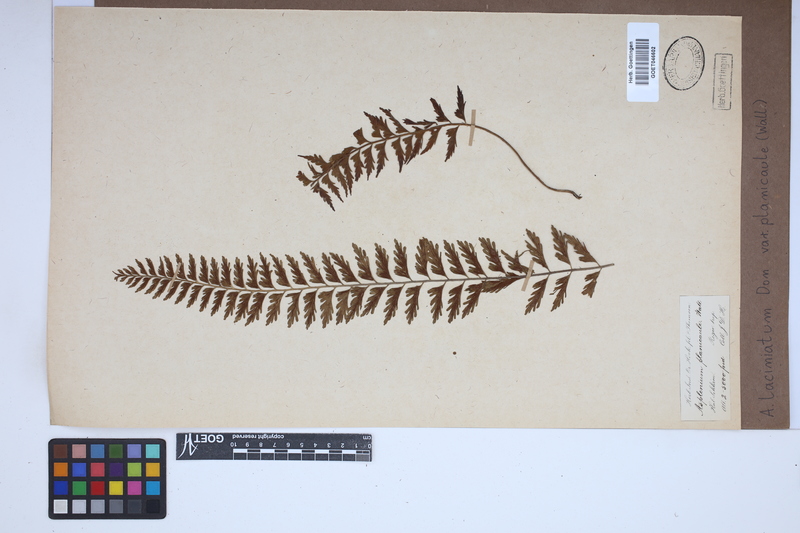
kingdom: Plantae
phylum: Tracheophyta
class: Polypodiopsida
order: Polypodiales
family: Aspleniaceae
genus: Asplenium
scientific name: Asplenium lividum
